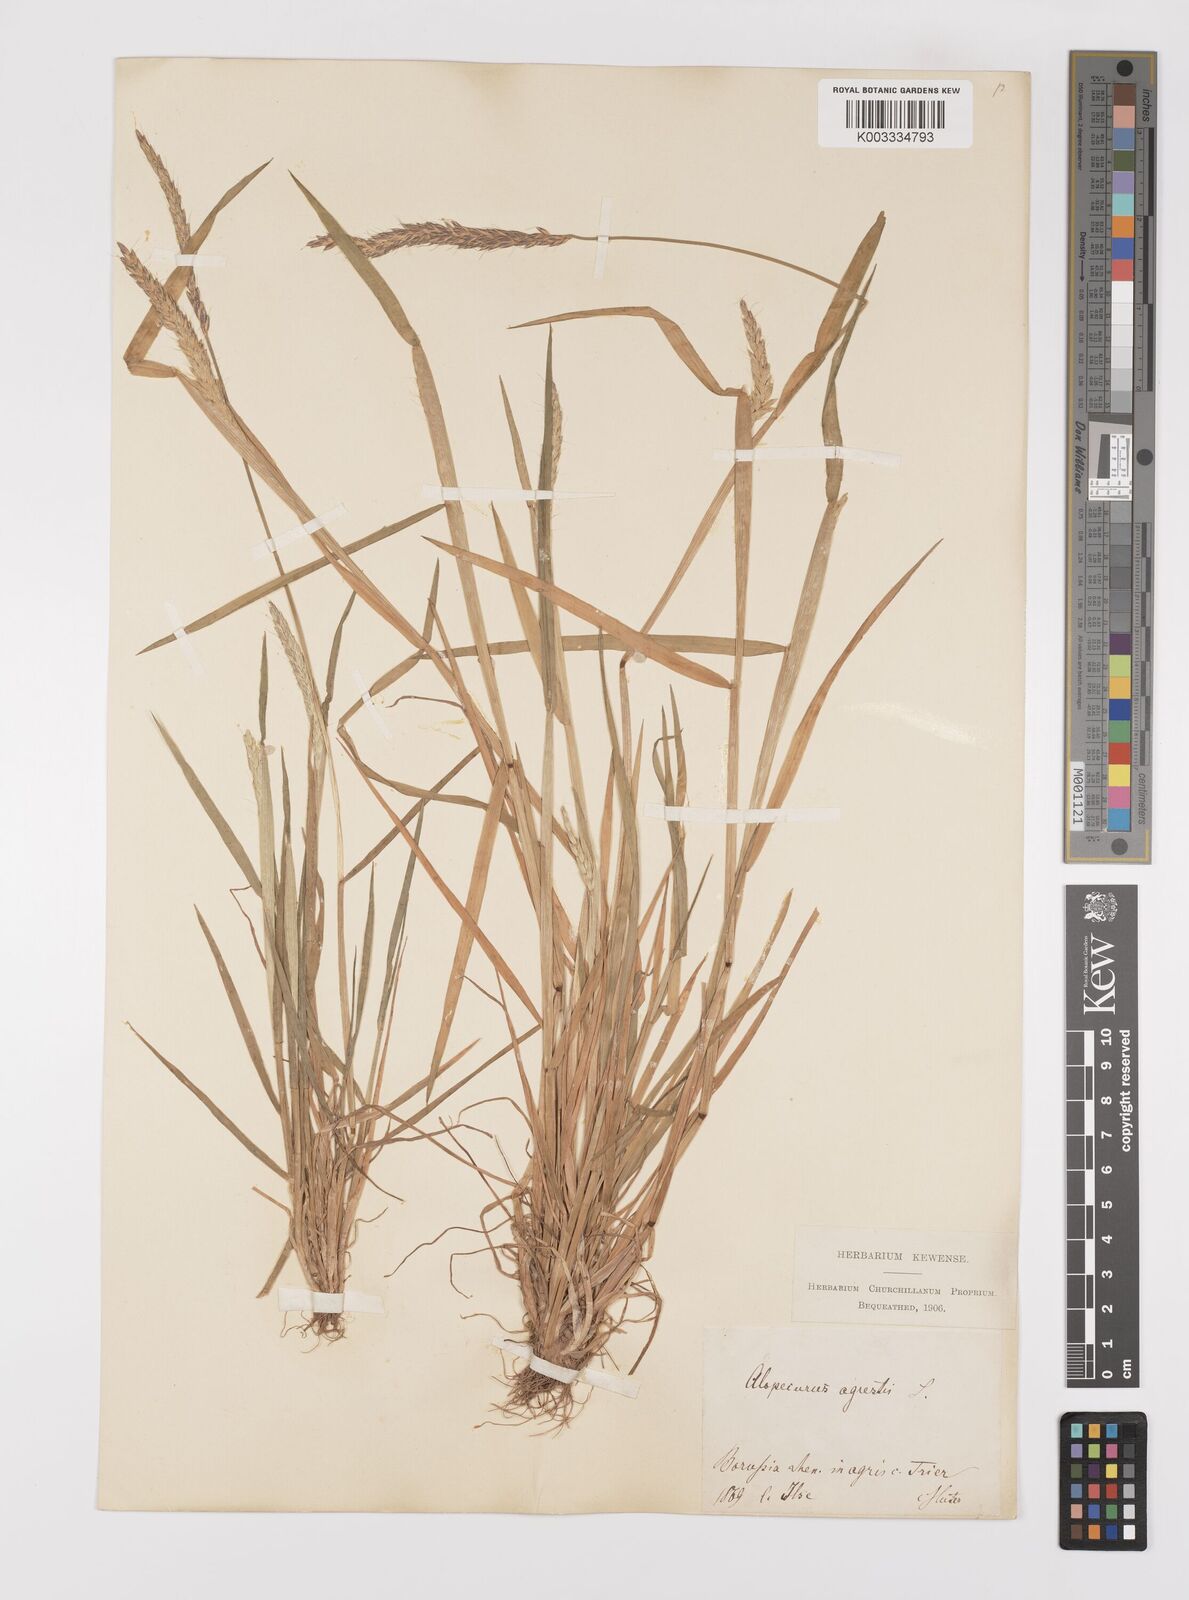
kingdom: Plantae
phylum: Tracheophyta
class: Liliopsida
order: Poales
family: Poaceae
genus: Alopecurus
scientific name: Alopecurus myosuroides
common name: Black-grass
